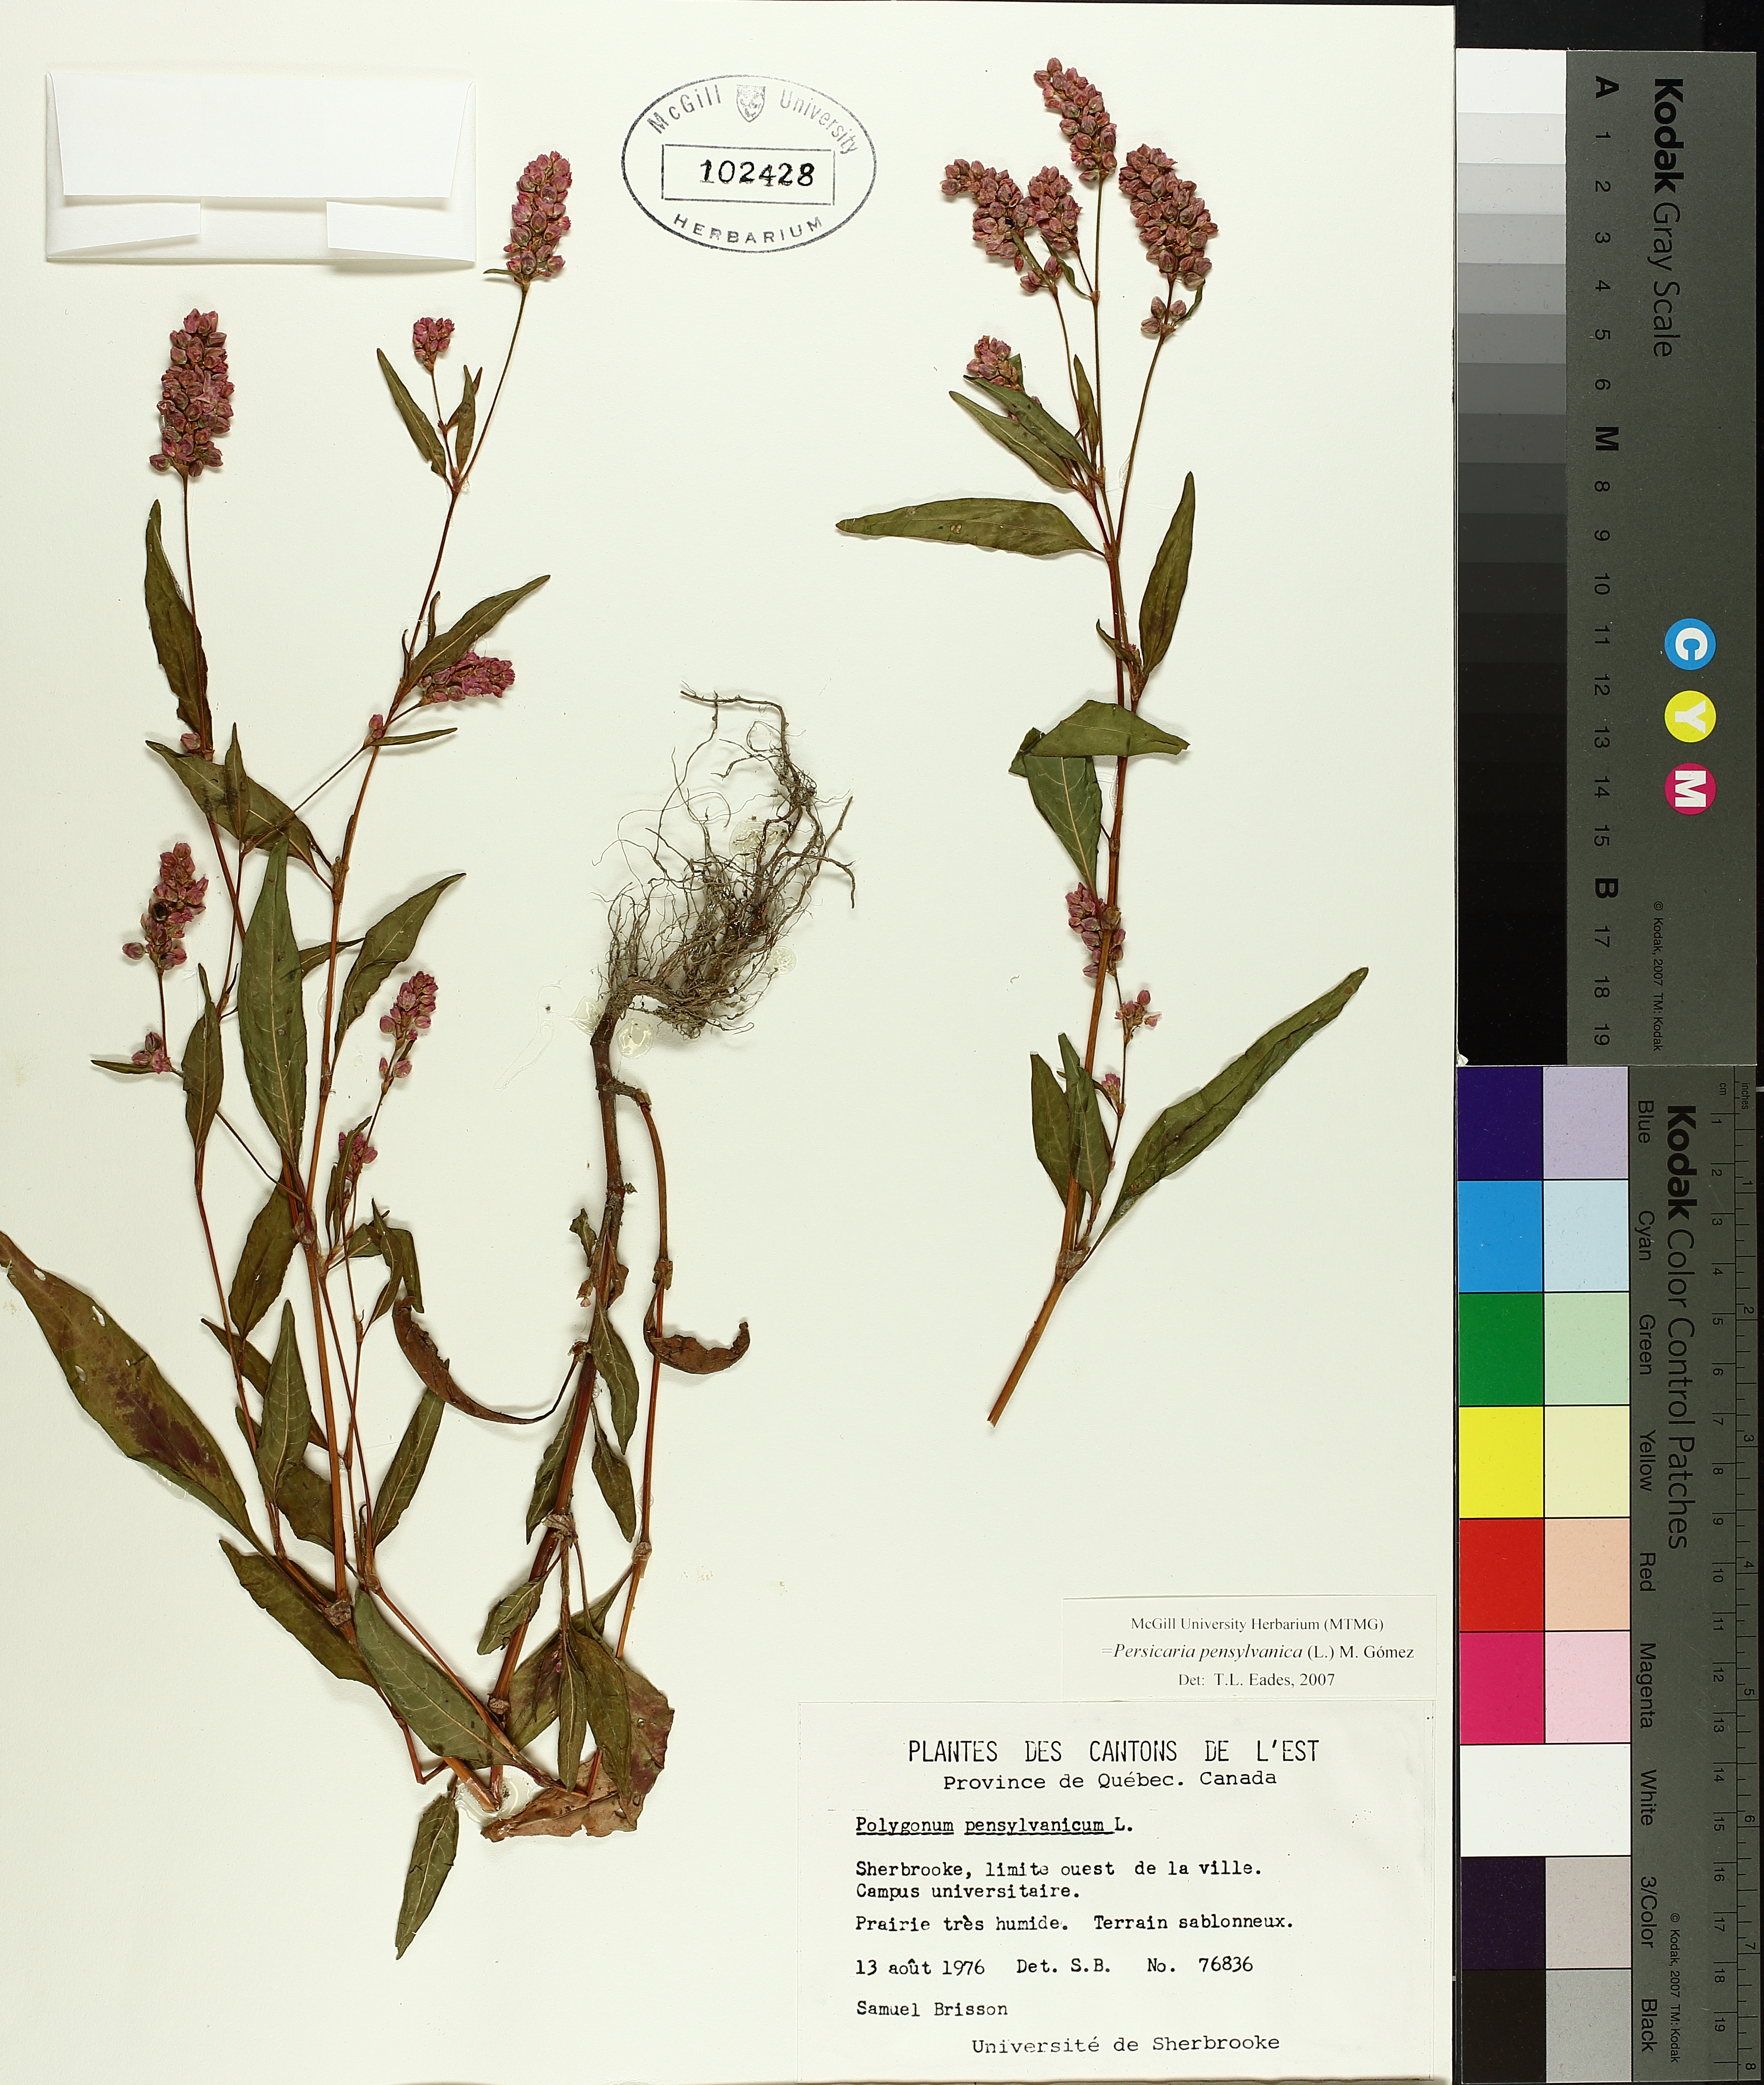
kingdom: Plantae
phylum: Tracheophyta
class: Magnoliopsida
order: Caryophyllales
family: Polygonaceae
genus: Persicaria
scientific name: Persicaria bungeana
